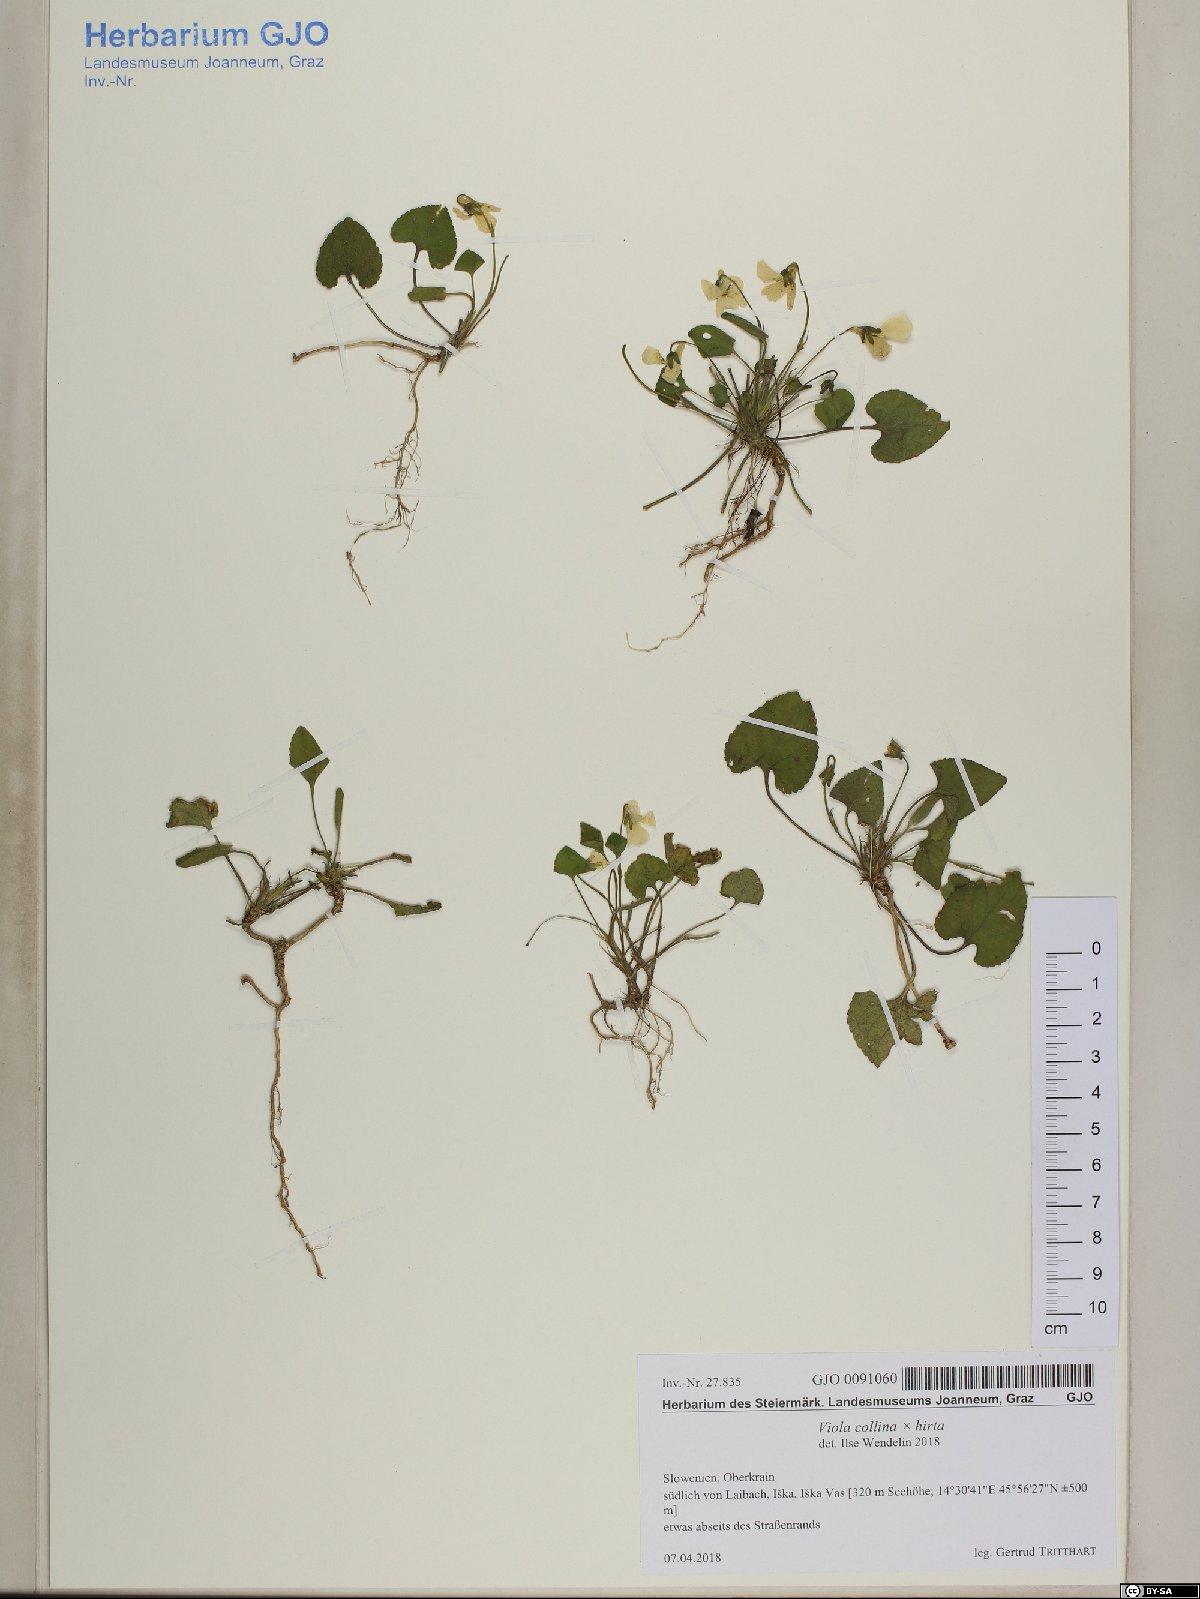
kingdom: Plantae
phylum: Tracheophyta
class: Magnoliopsida
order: Malpighiales
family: Violaceae
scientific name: Violaceae
